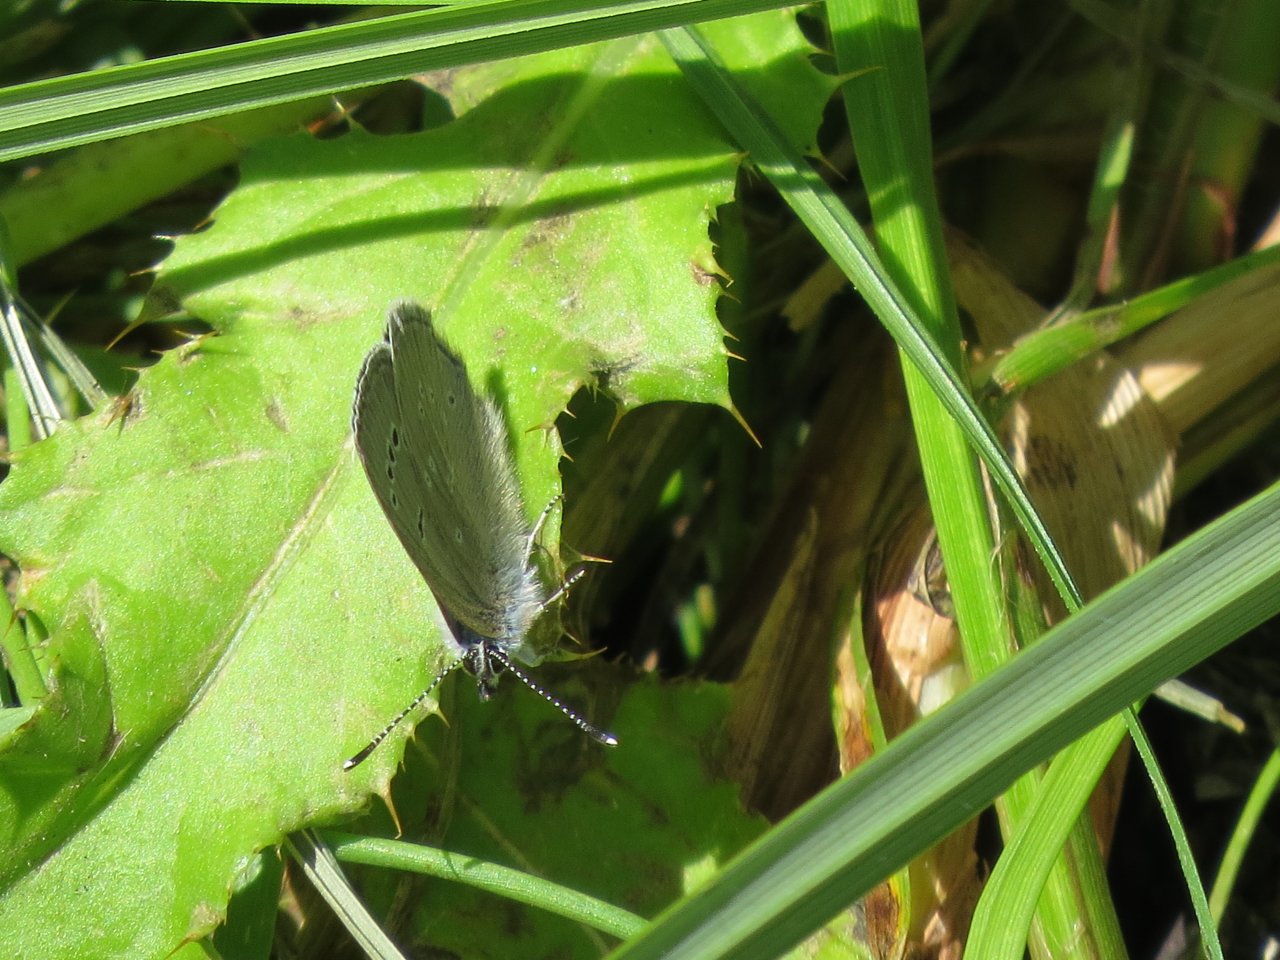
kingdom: Animalia
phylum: Arthropoda
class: Insecta
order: Lepidoptera
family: Lycaenidae
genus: Glaucopsyche
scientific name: Glaucopsyche lygdamus
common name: Silvery Blue
